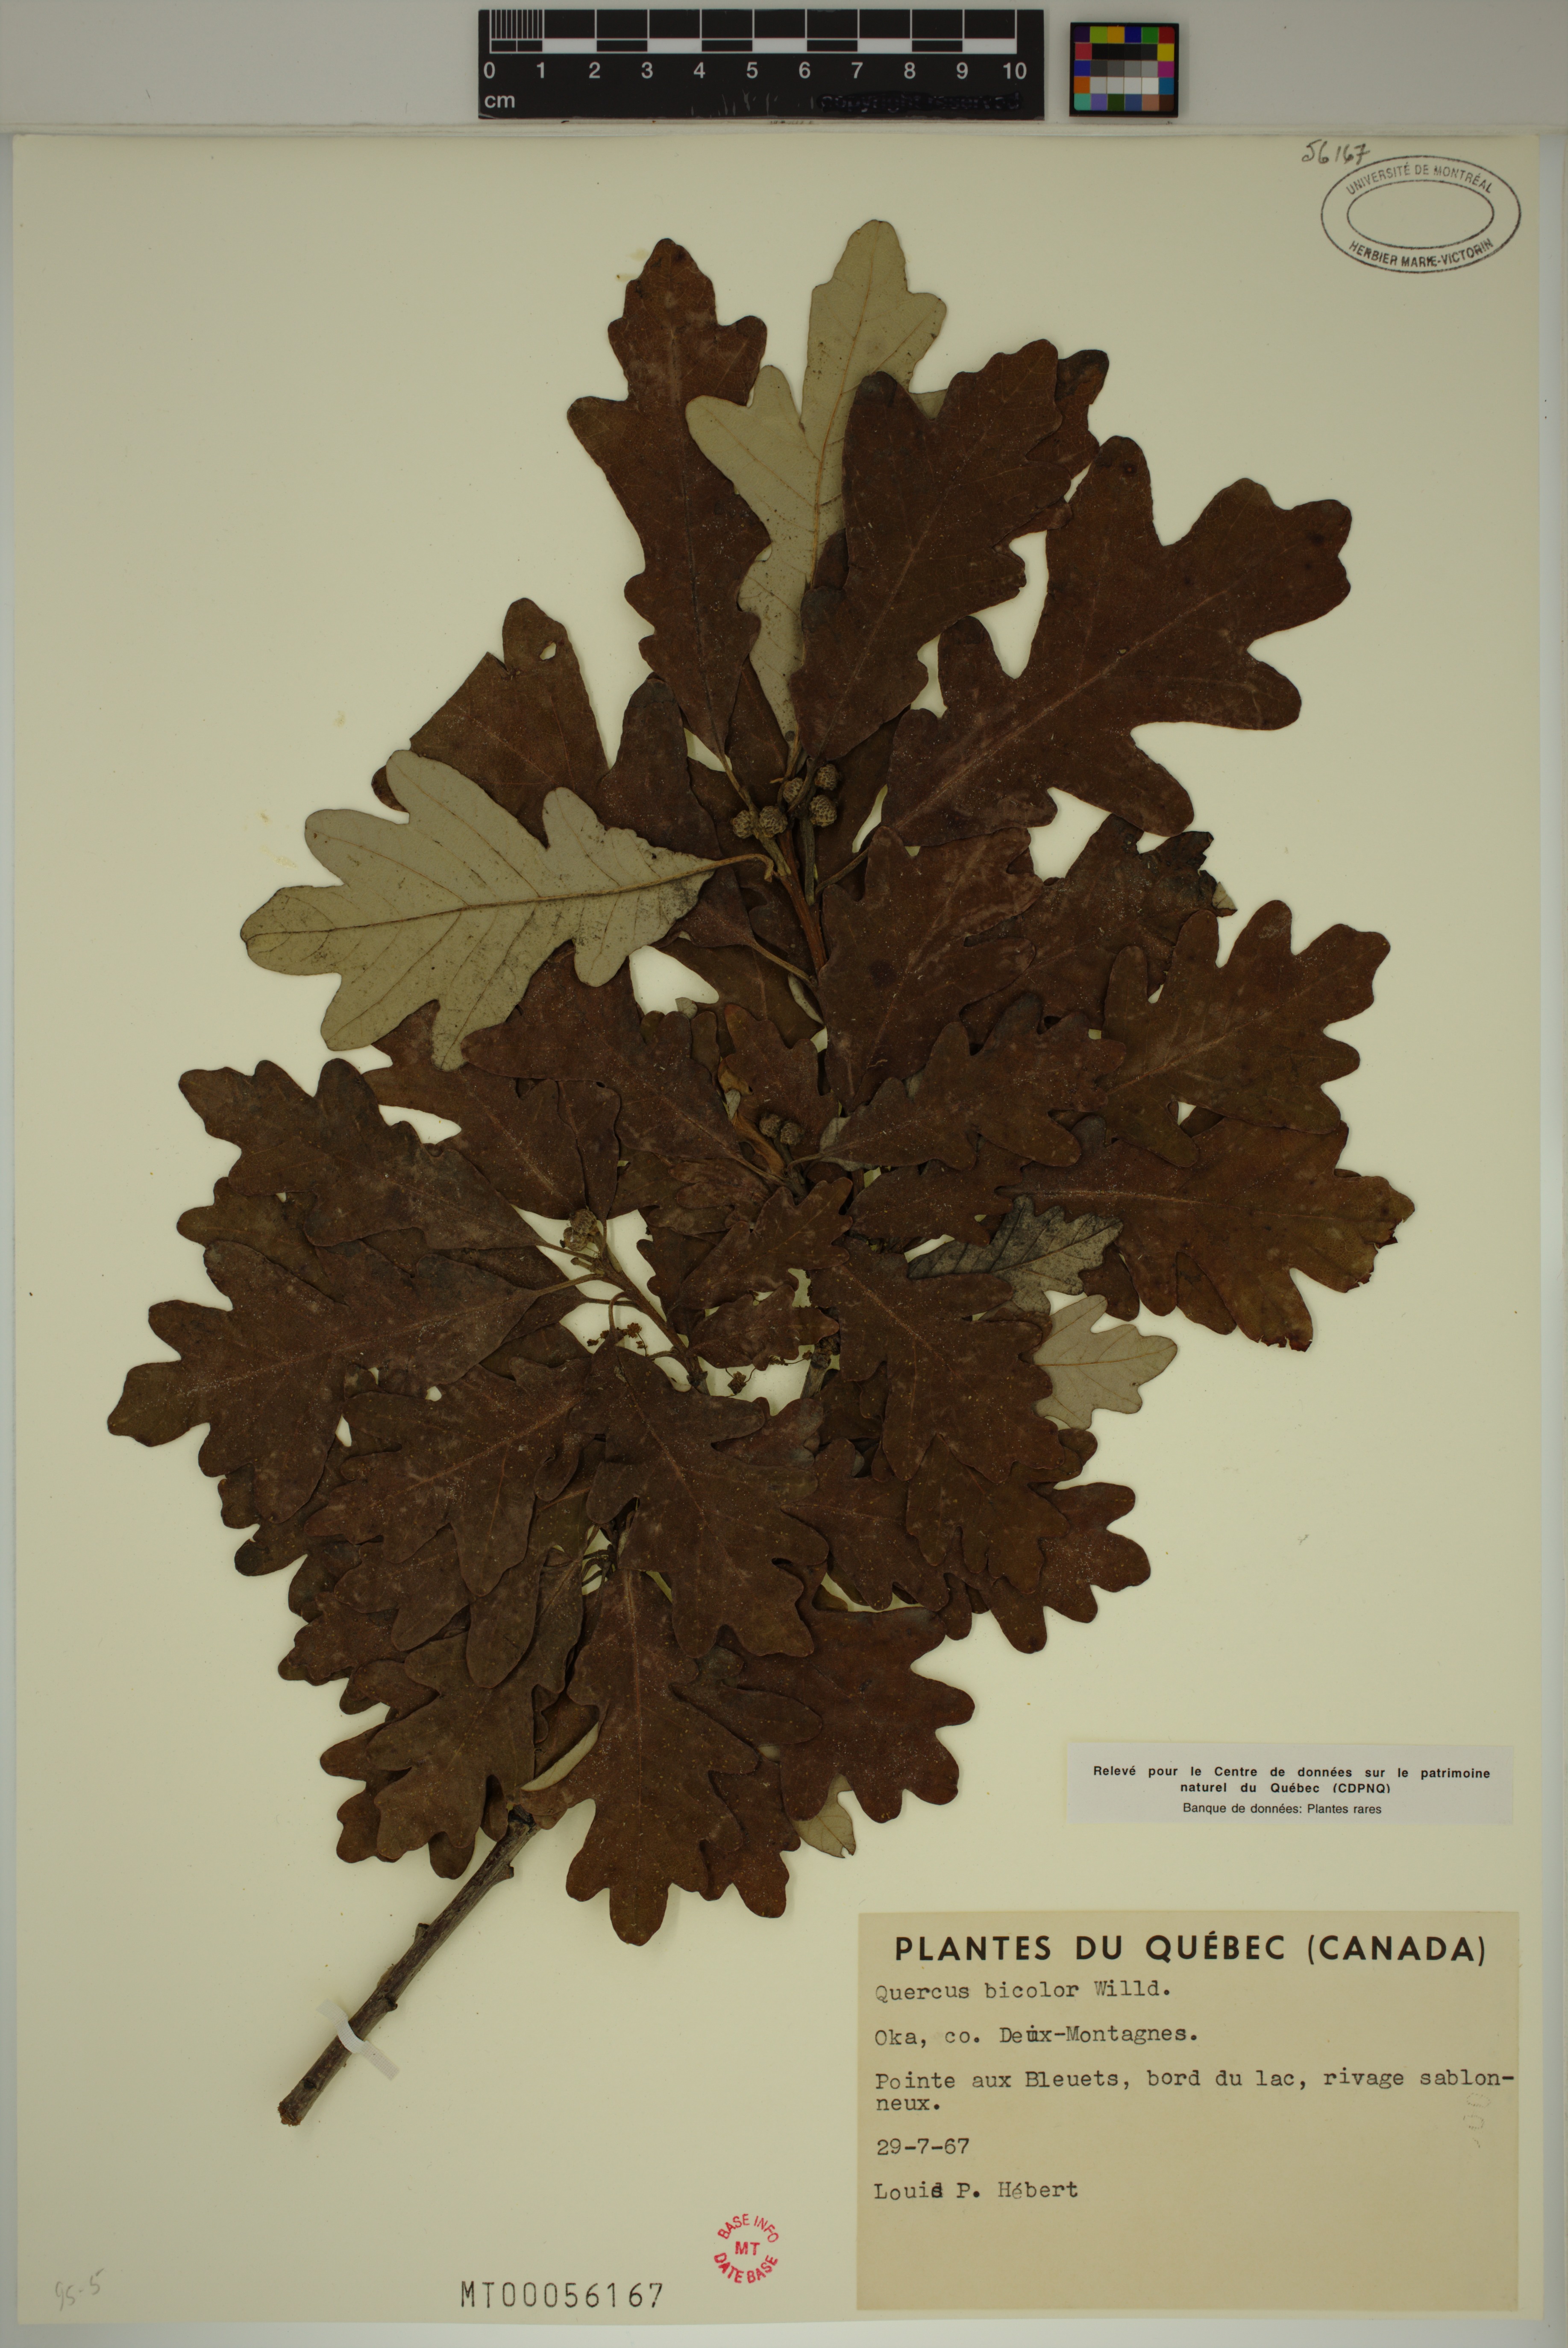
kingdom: Plantae
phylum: Tracheophyta
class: Magnoliopsida
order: Fagales
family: Fagaceae
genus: Quercus
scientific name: Quercus bicolor
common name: Swamp white oak
